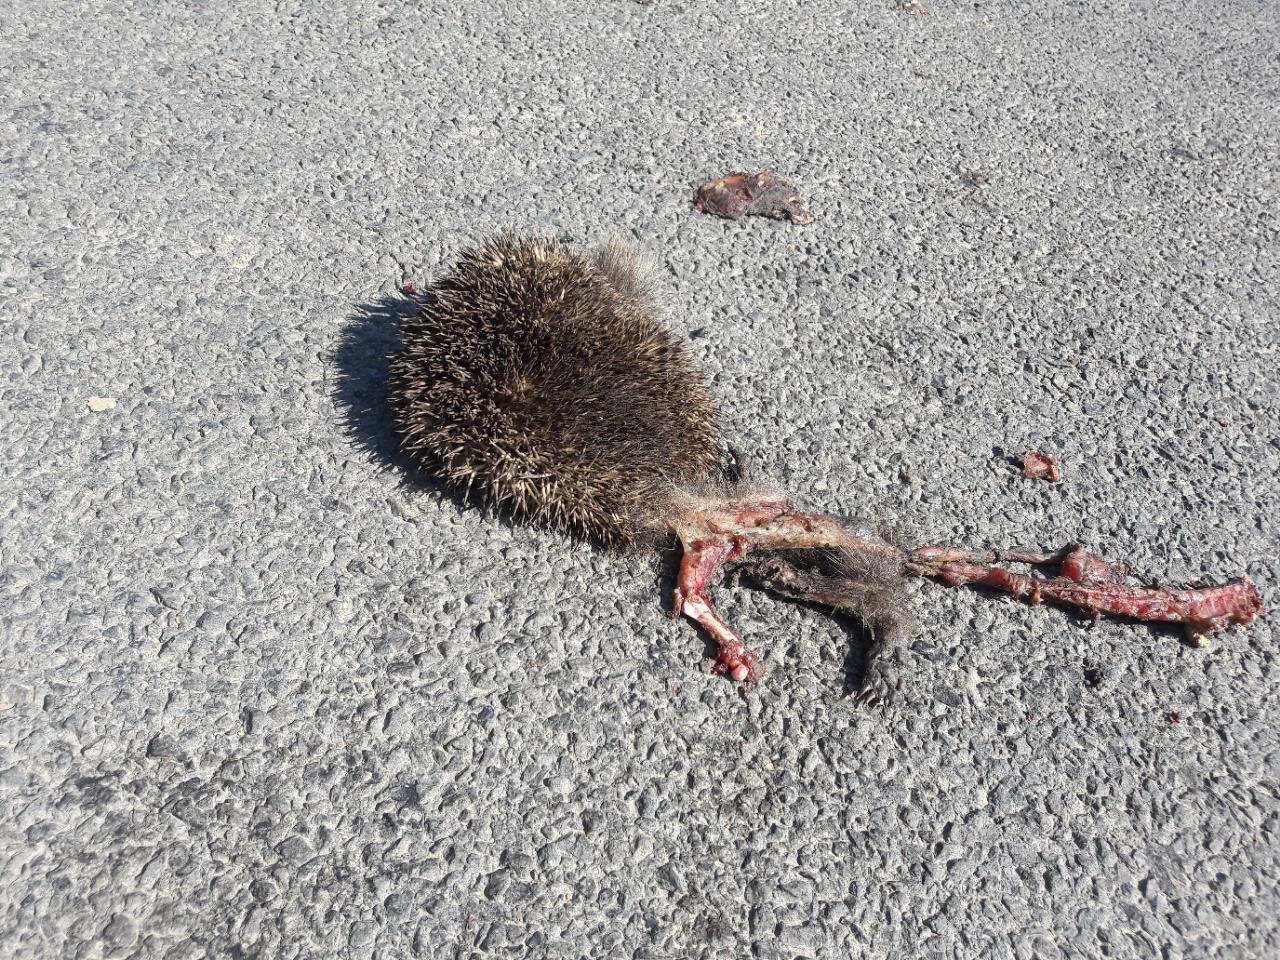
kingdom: Animalia
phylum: Chordata
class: Mammalia
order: Erinaceomorpha
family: Erinaceidae
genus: Erinaceus
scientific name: Erinaceus
